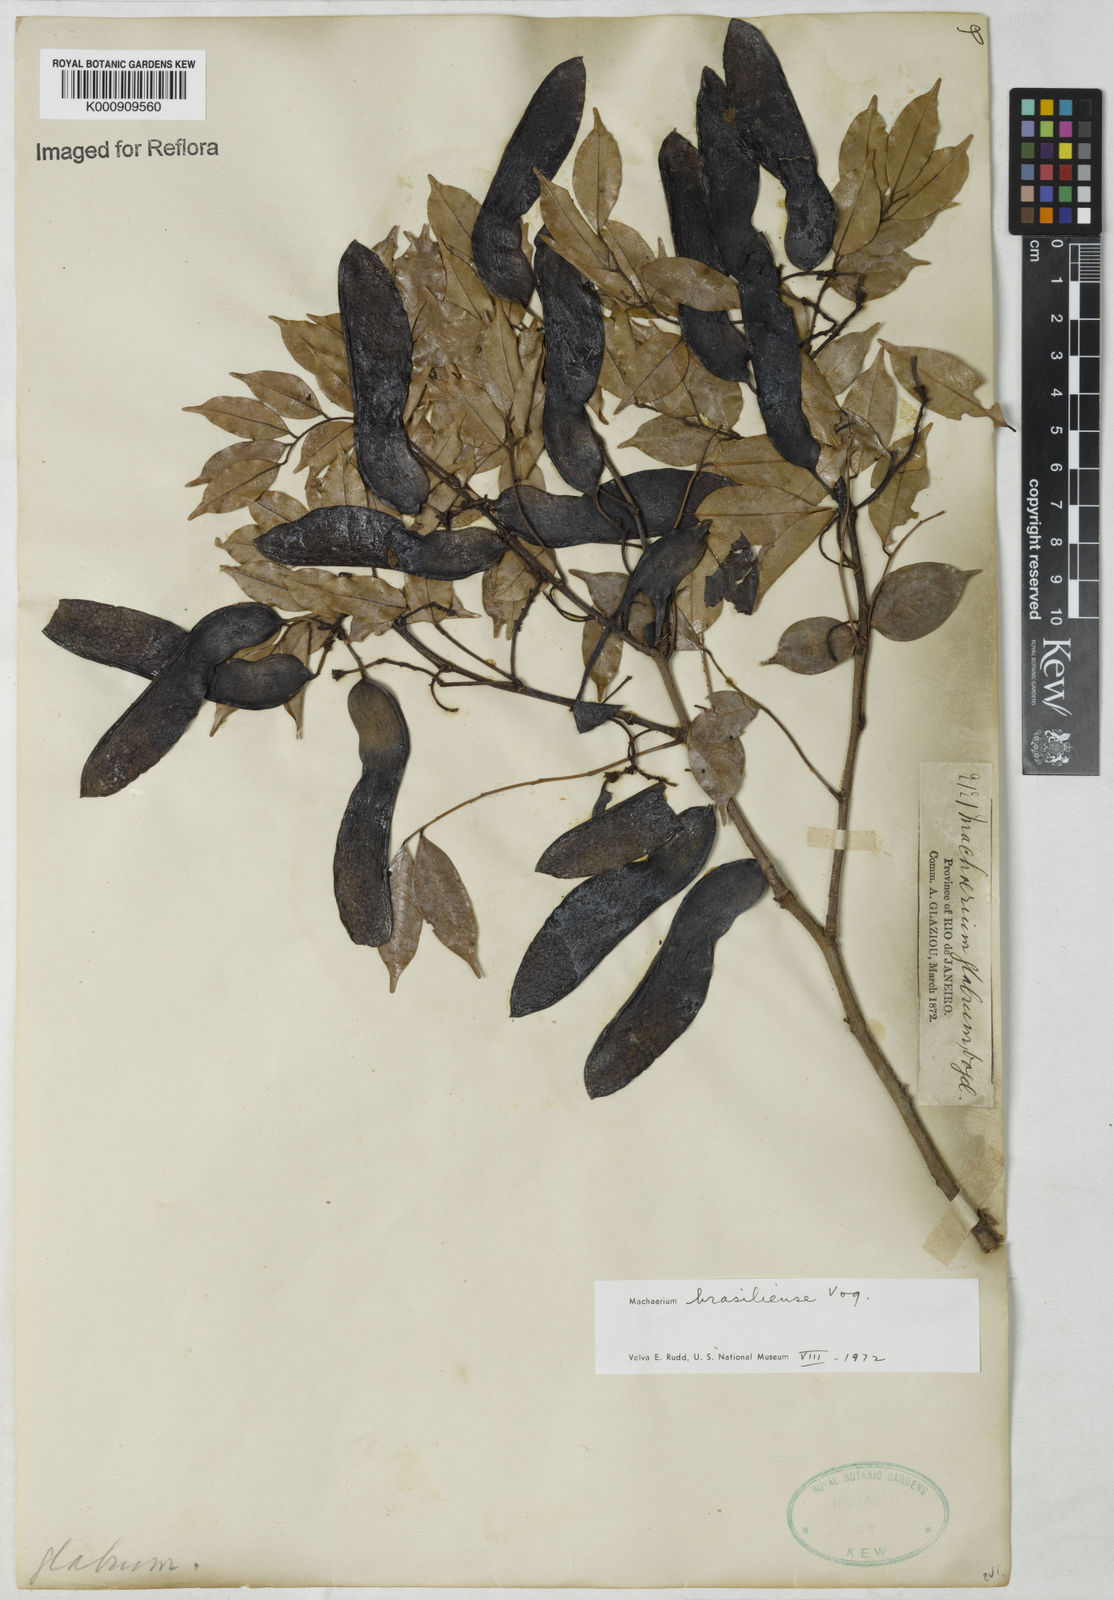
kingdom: Plantae
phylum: Tracheophyta
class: Magnoliopsida
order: Fabales
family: Fabaceae
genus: Machaerium
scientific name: Machaerium brasiliense
